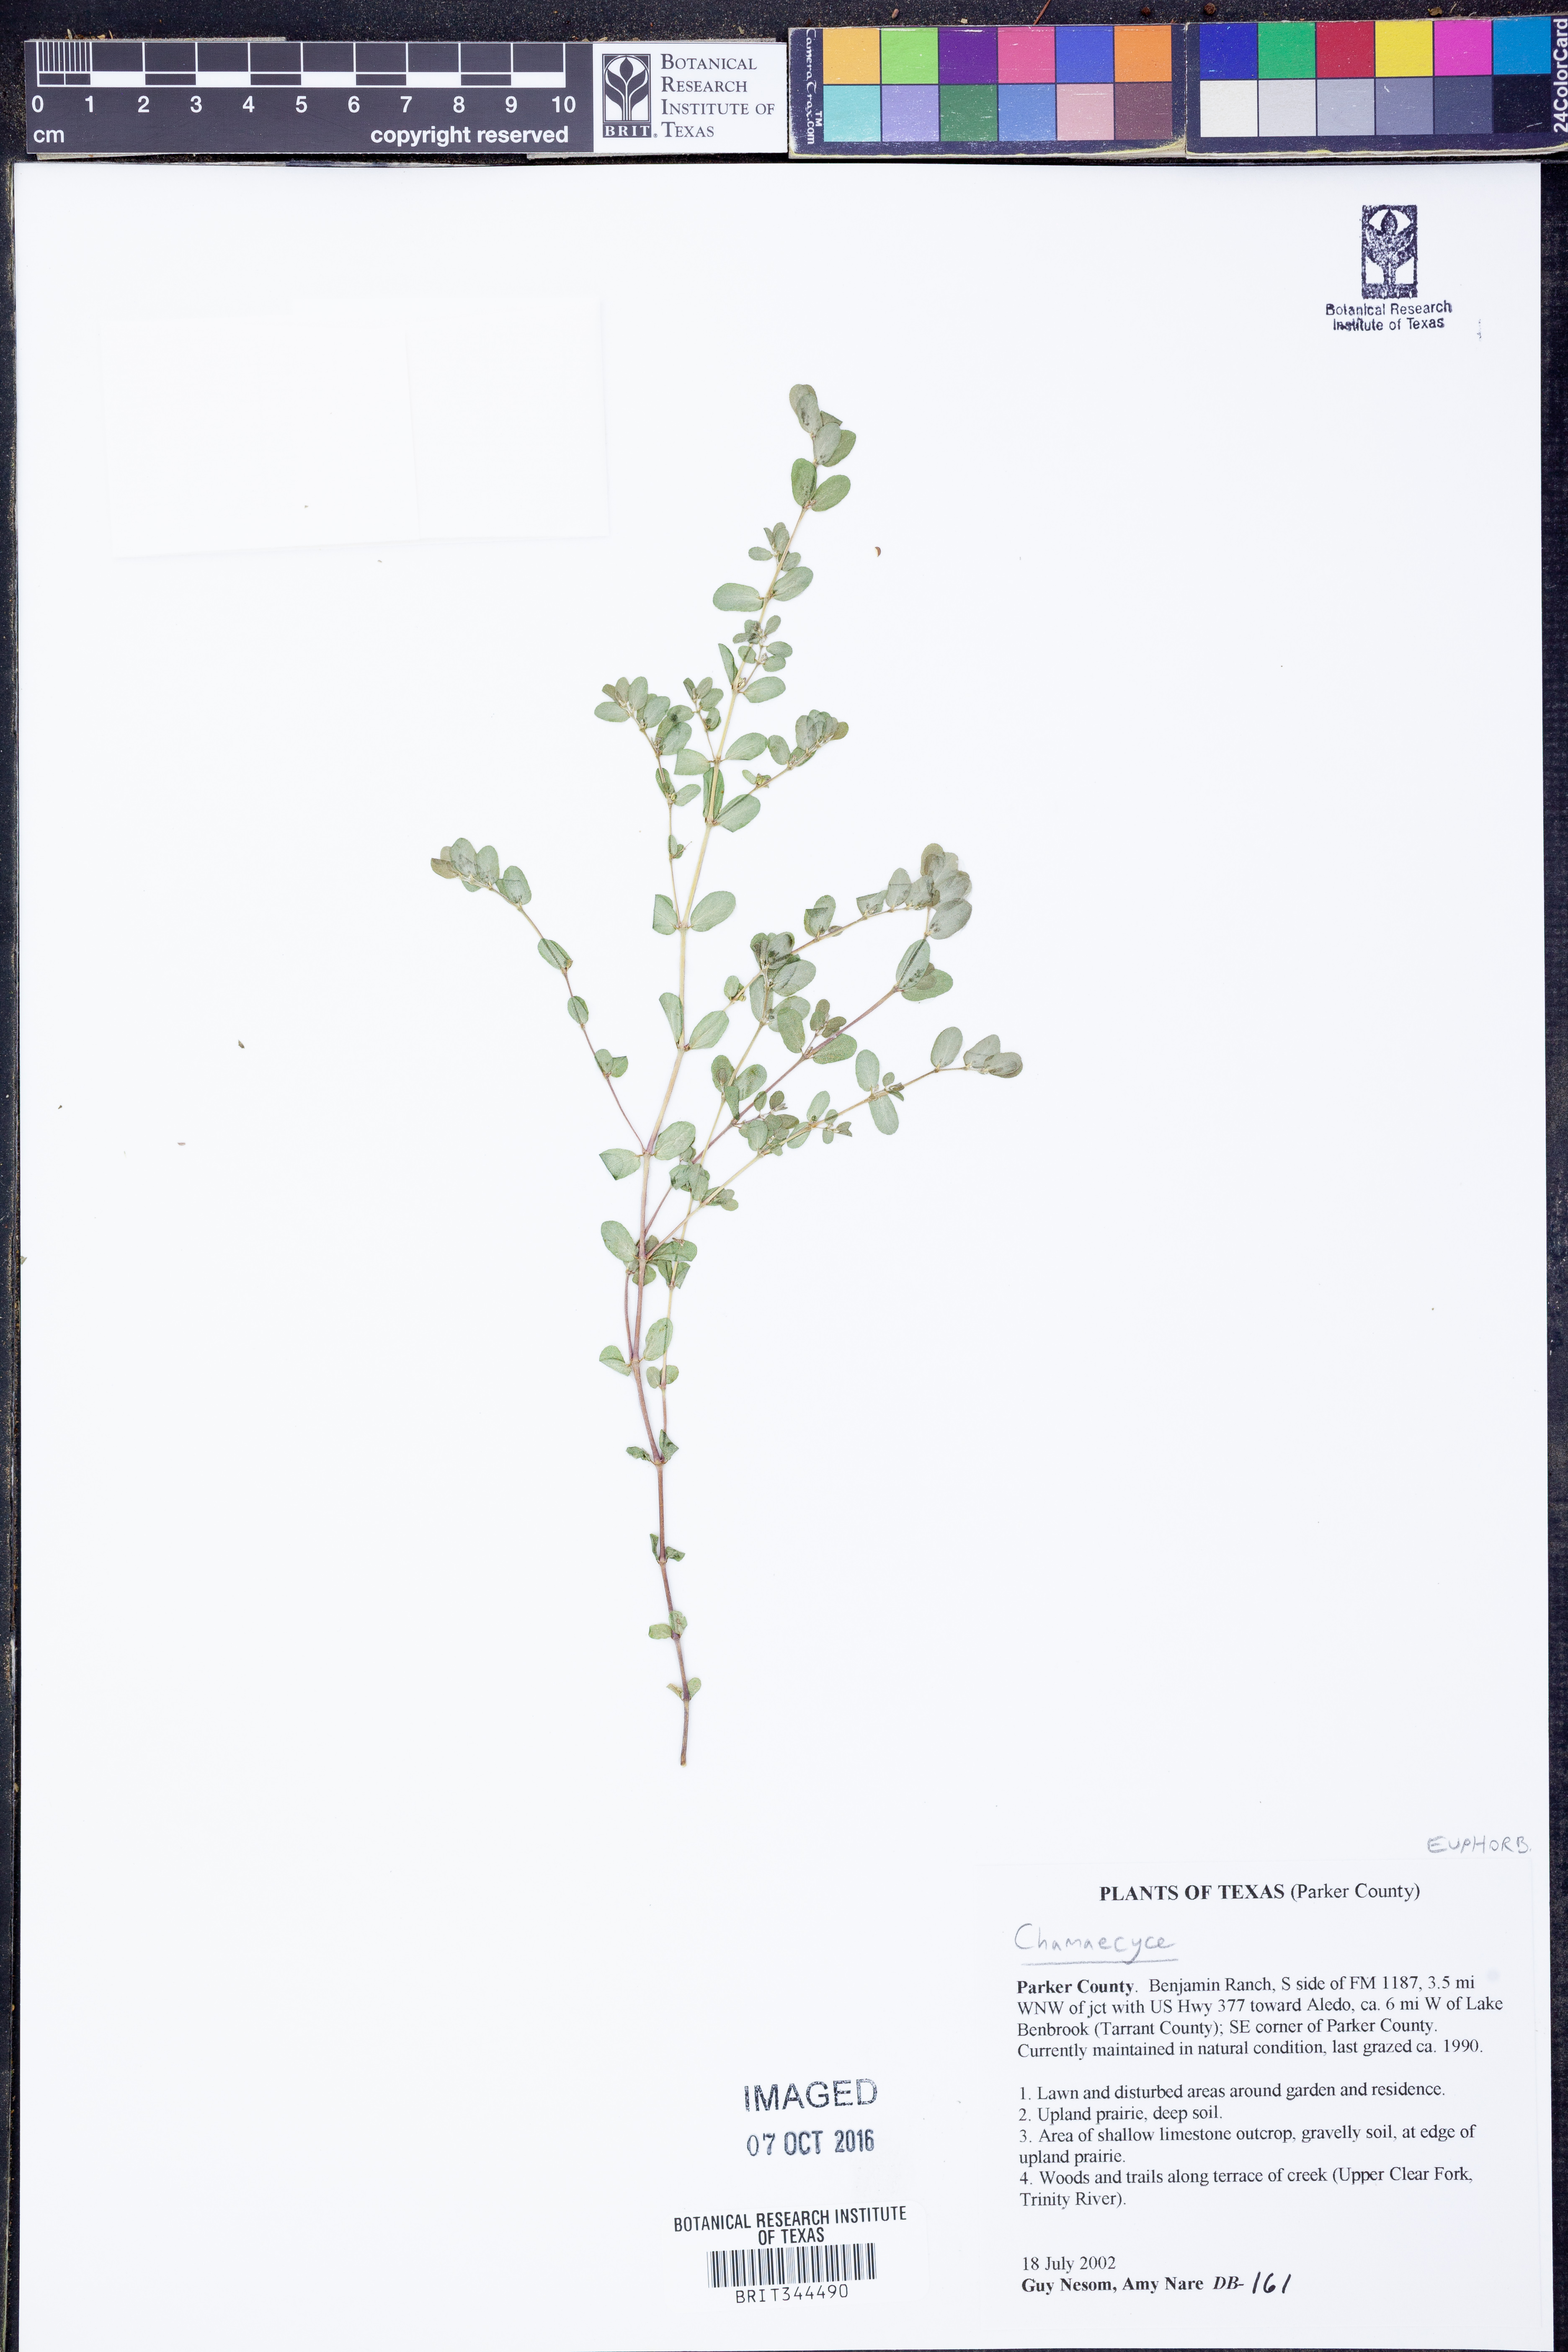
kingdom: Plantae
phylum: Tracheophyta
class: Magnoliopsida
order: Malpighiales
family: Euphorbiaceae
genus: Chamaesyce
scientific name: Chamaesyce
